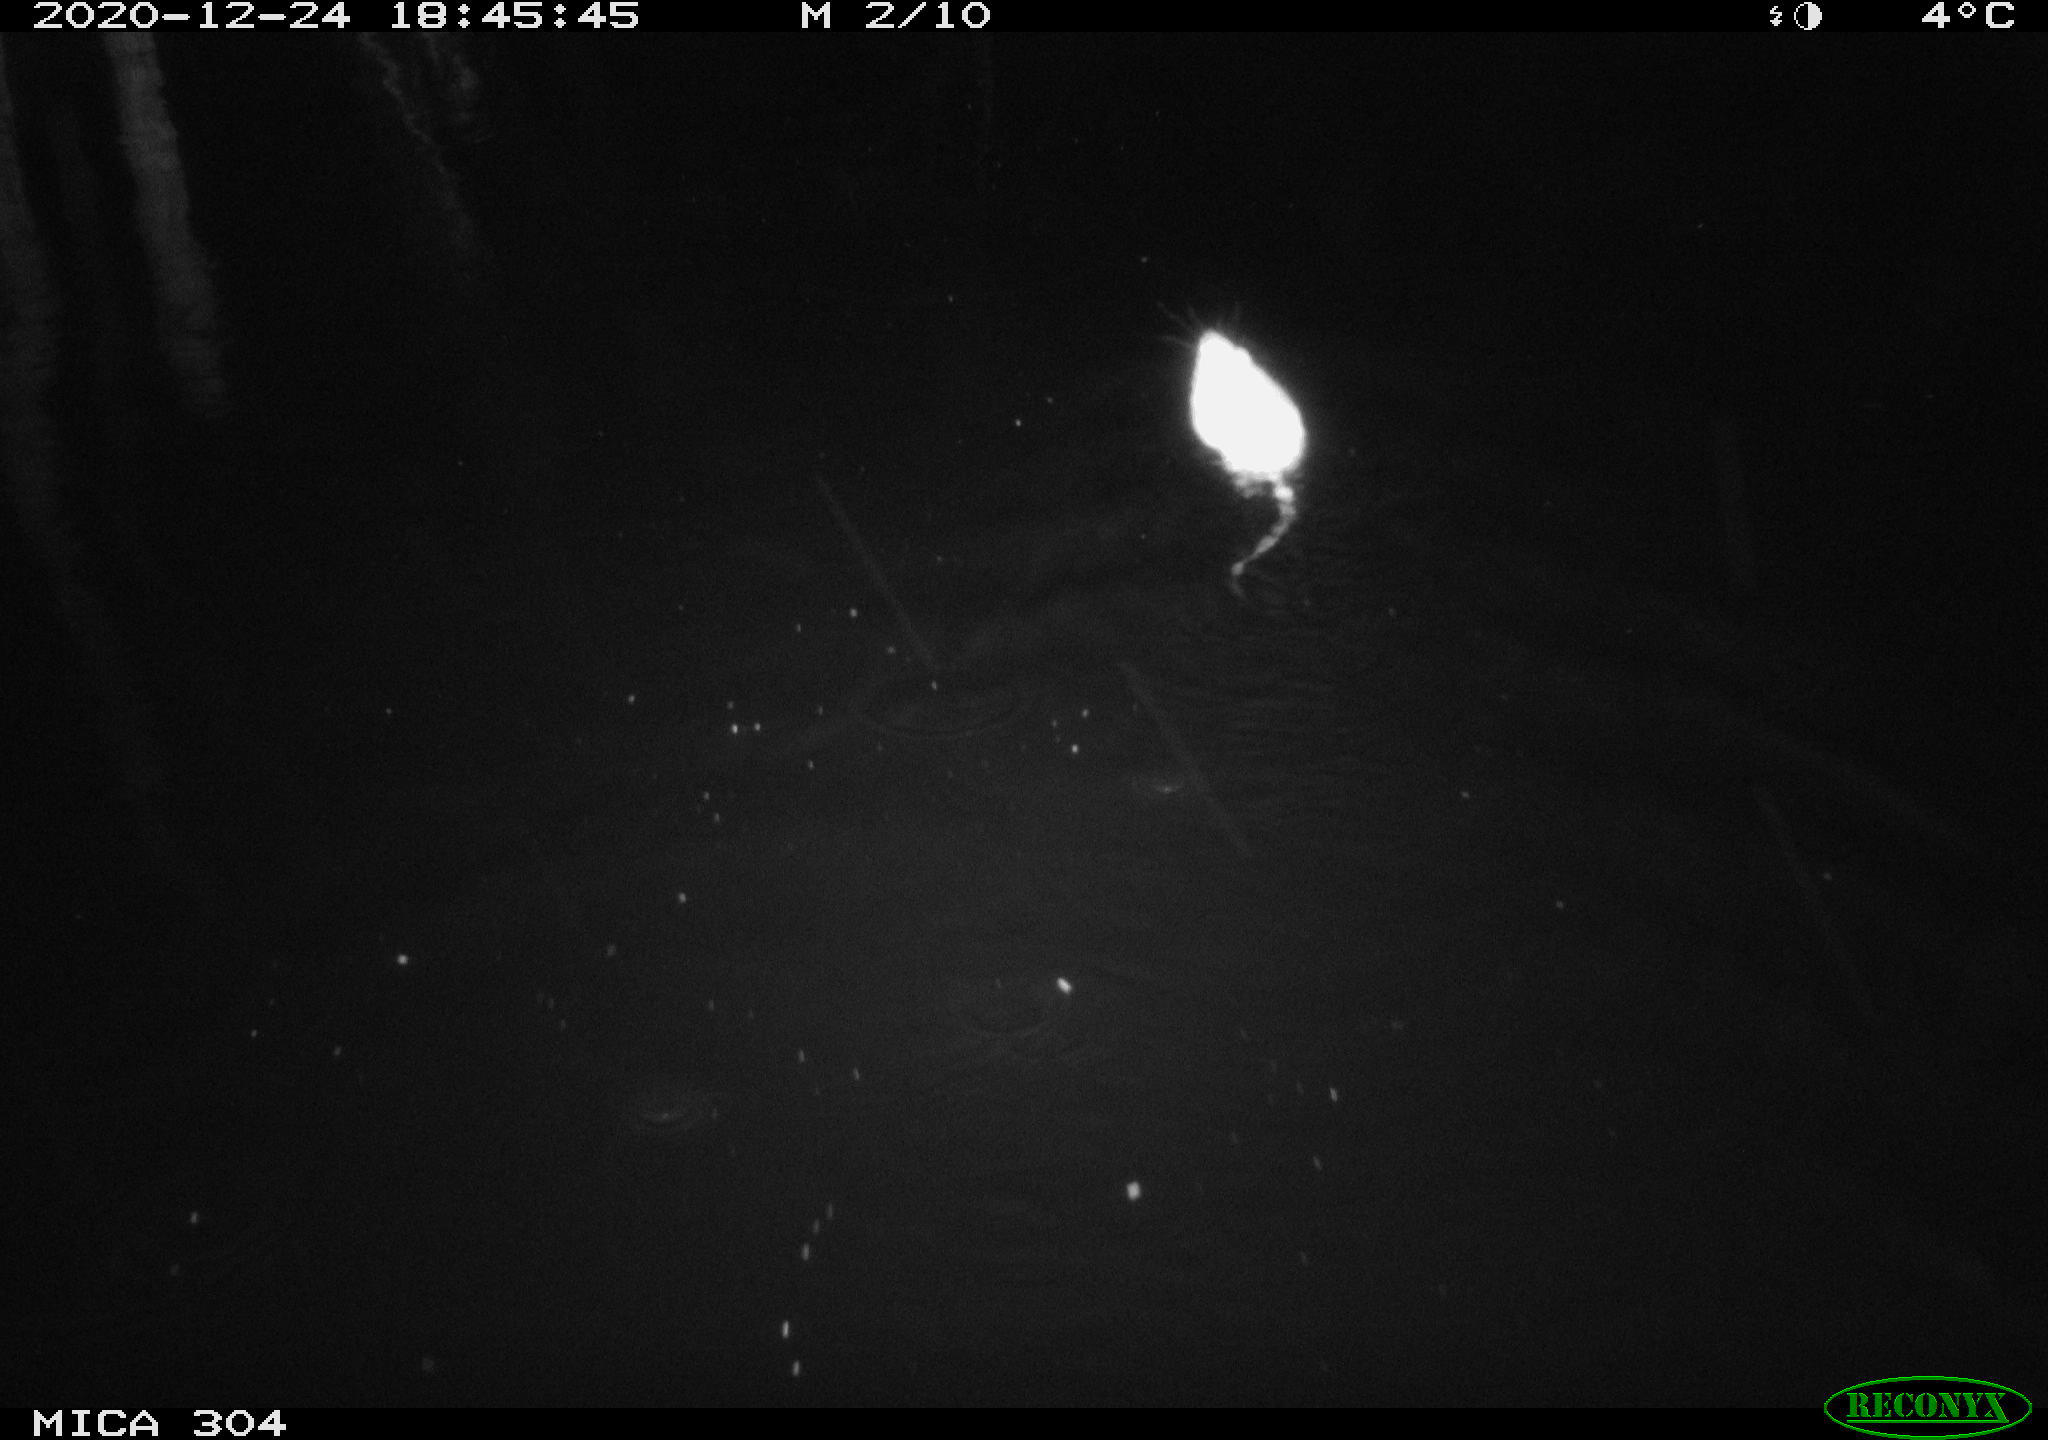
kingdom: Animalia
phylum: Chordata
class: Mammalia
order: Rodentia
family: Cricetidae
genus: Ondatra
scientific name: Ondatra zibethicus
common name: Muskrat
